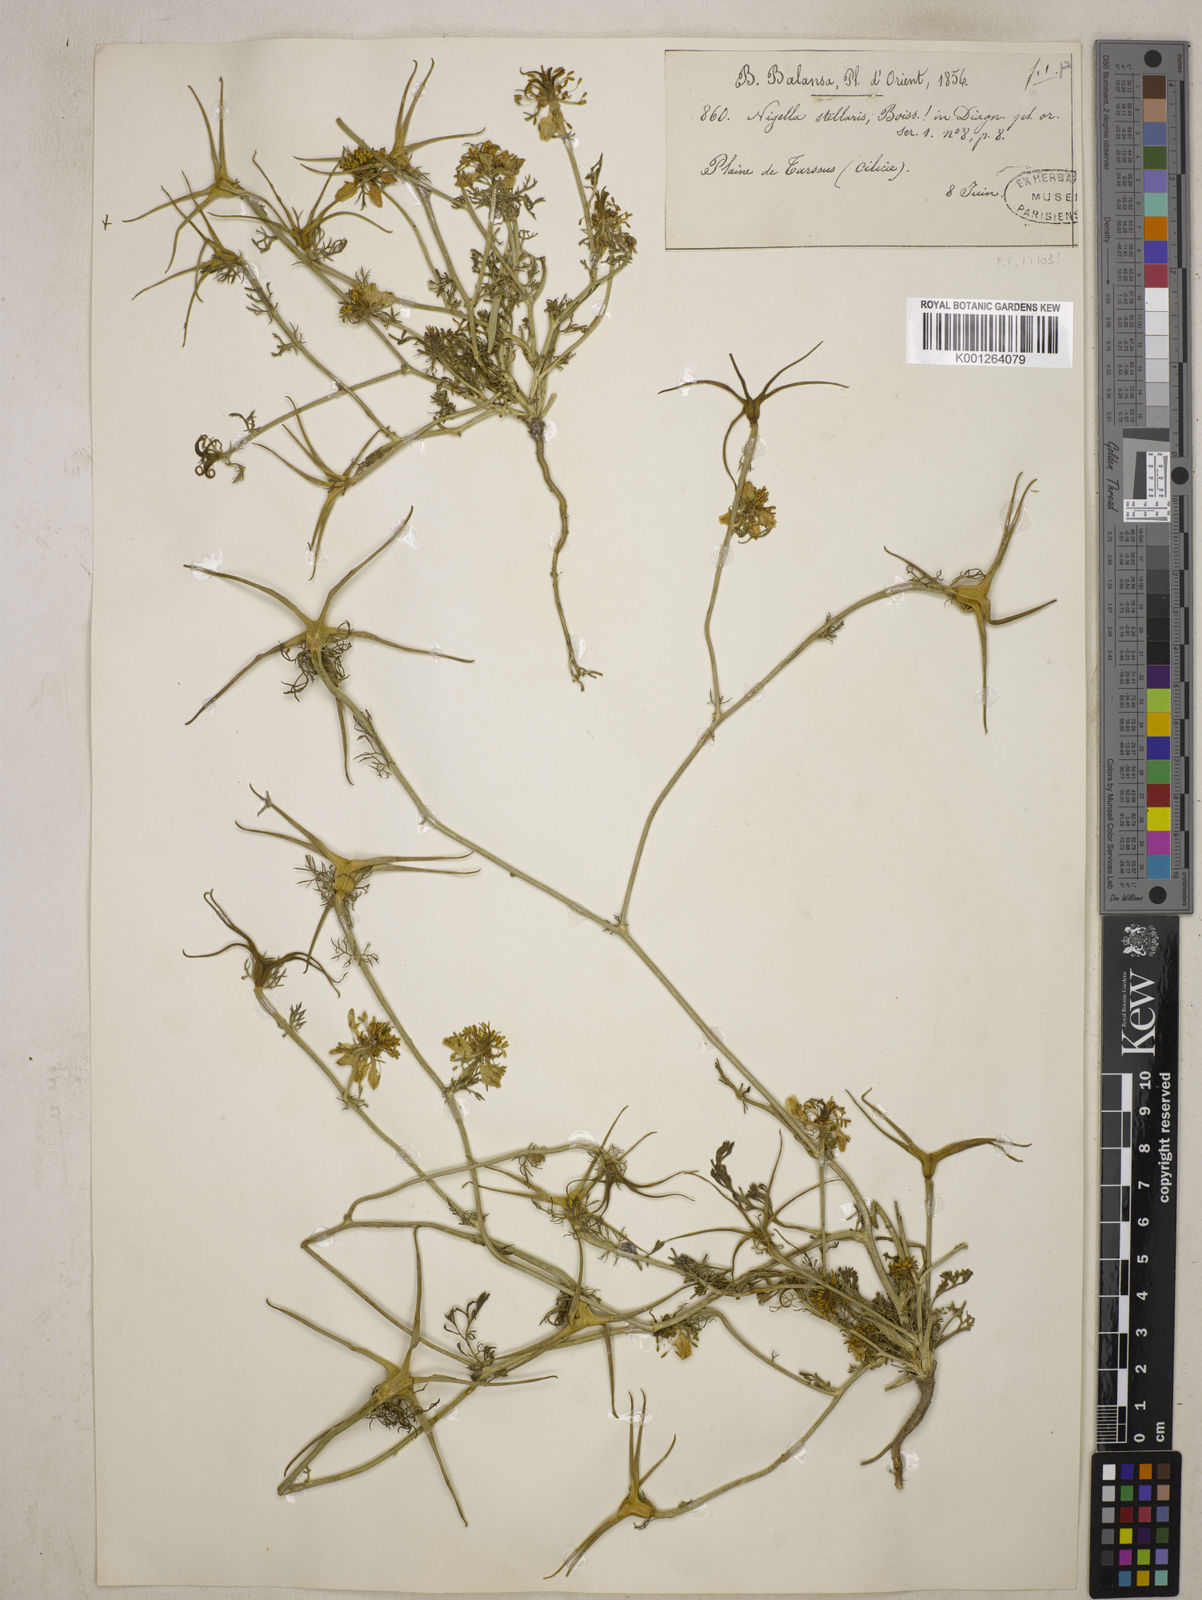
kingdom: Plantae
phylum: Tracheophyta
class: Magnoliopsida
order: Ranunculales
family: Ranunculaceae
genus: Nigella
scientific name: Nigella stellaris
